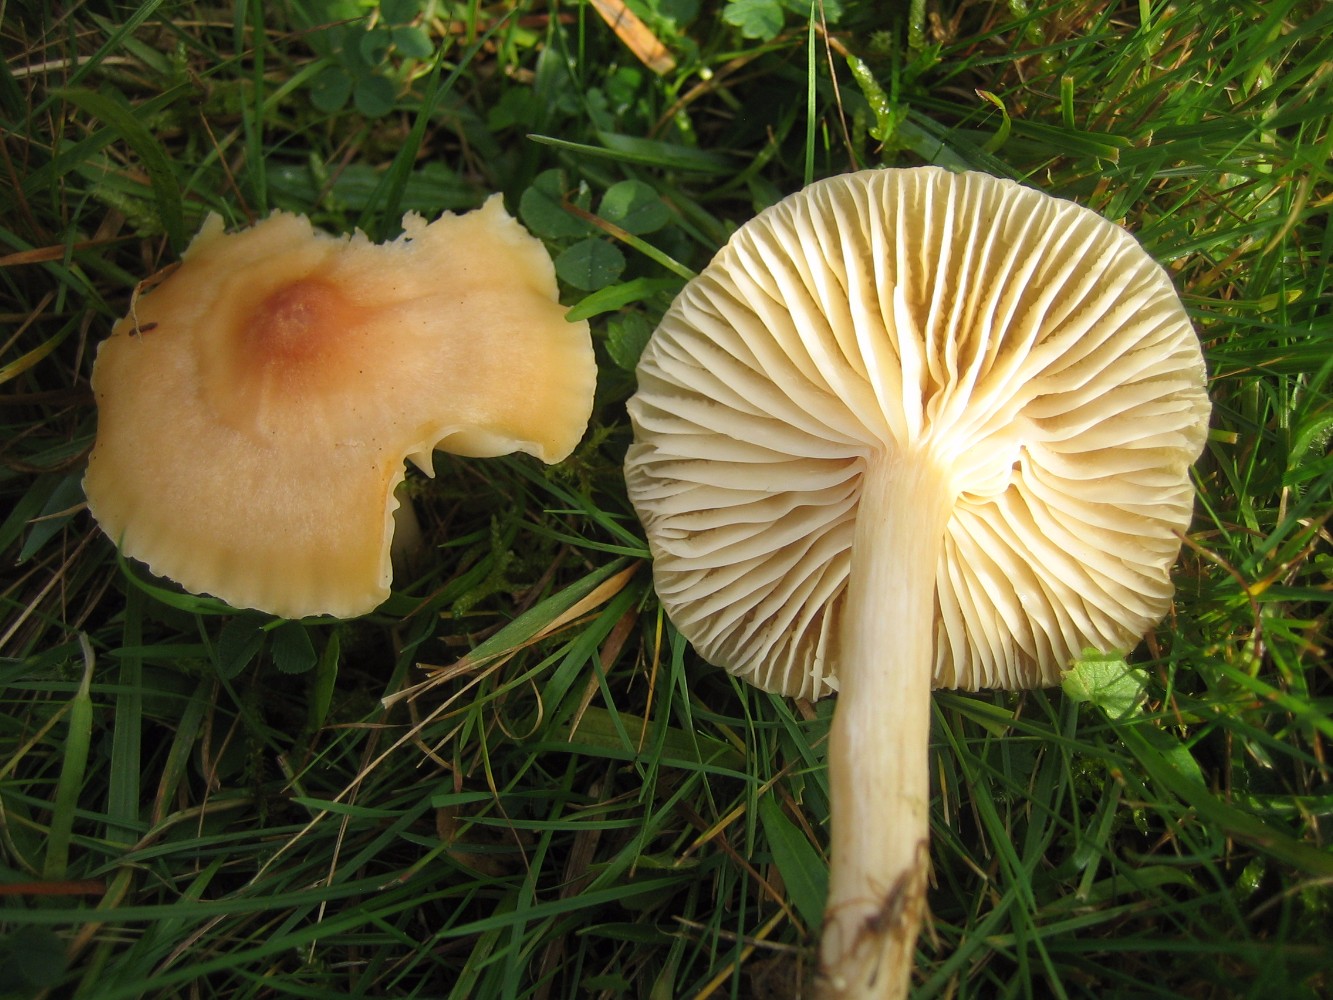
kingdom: Fungi
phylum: Basidiomycota
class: Agaricomycetes
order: Agaricales
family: Hygrophoraceae
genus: Cuphophyllus
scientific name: Cuphophyllus pratensis
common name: eng-vokshat
